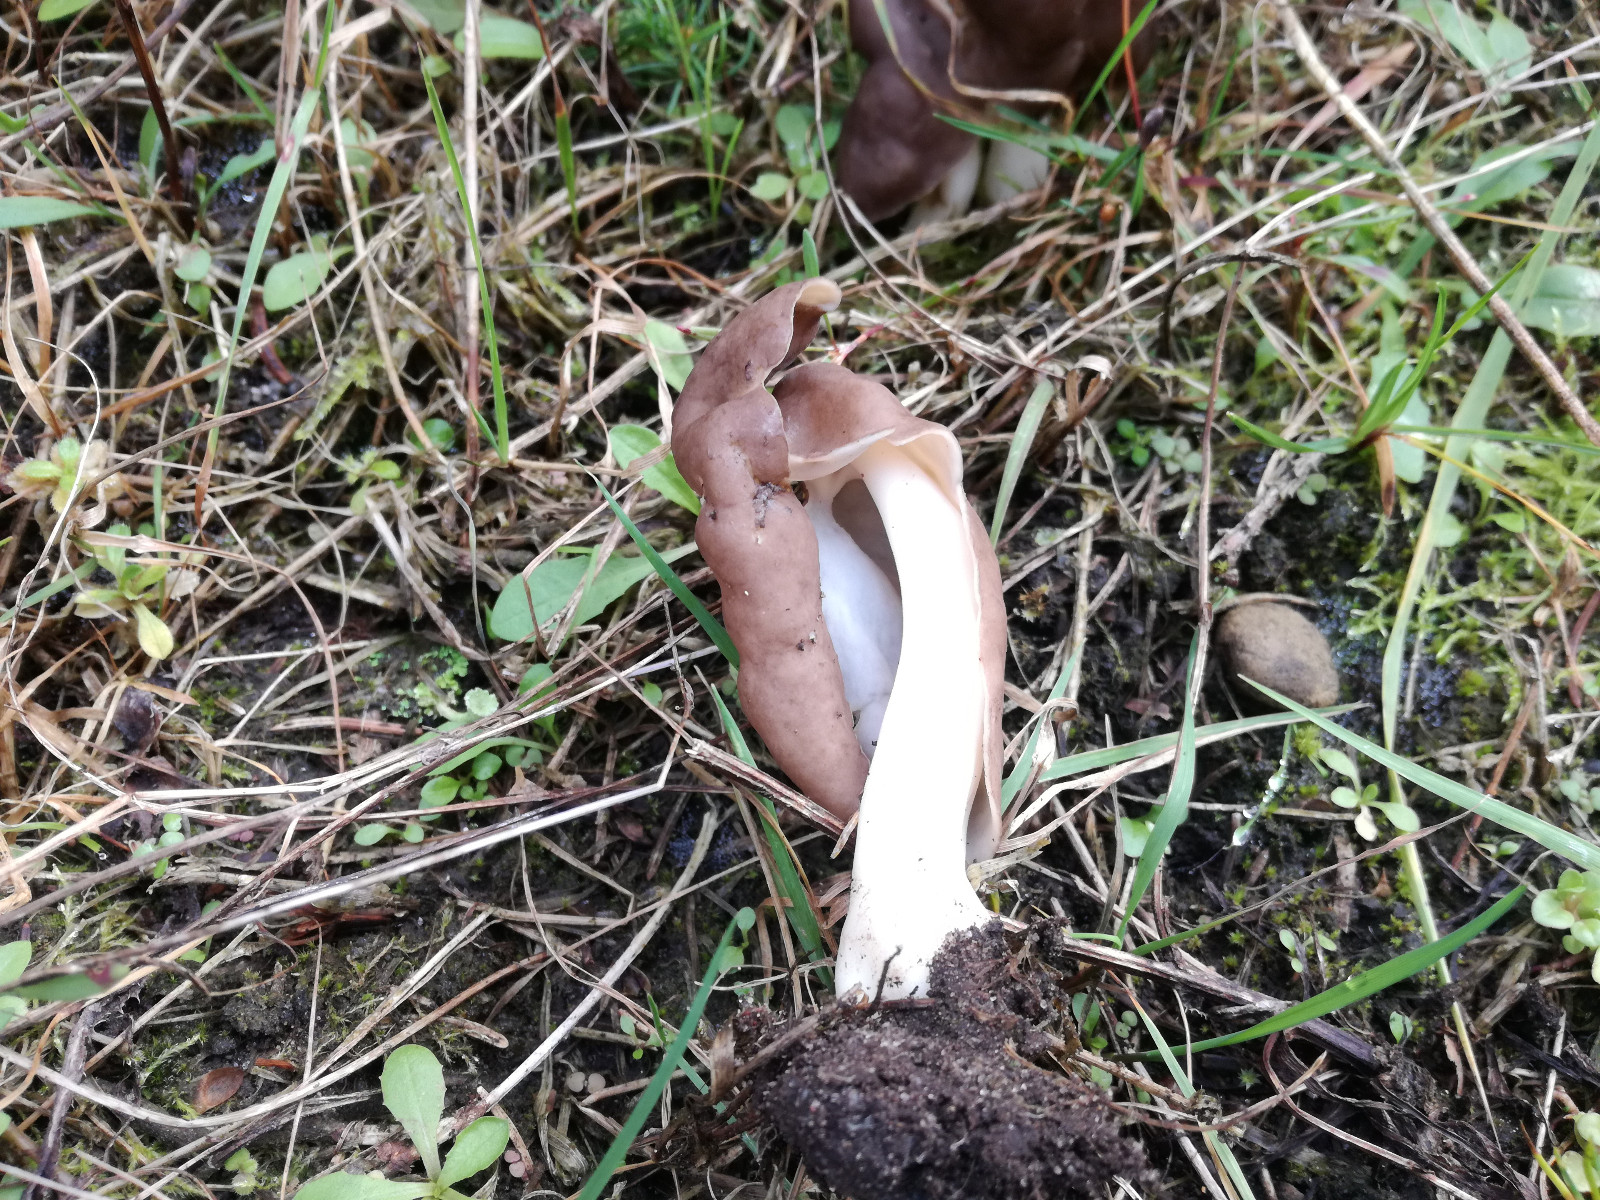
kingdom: Fungi
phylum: Ascomycota
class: Pezizomycetes
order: Pezizales
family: Helvellaceae
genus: Helvella
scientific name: Helvella elastica
